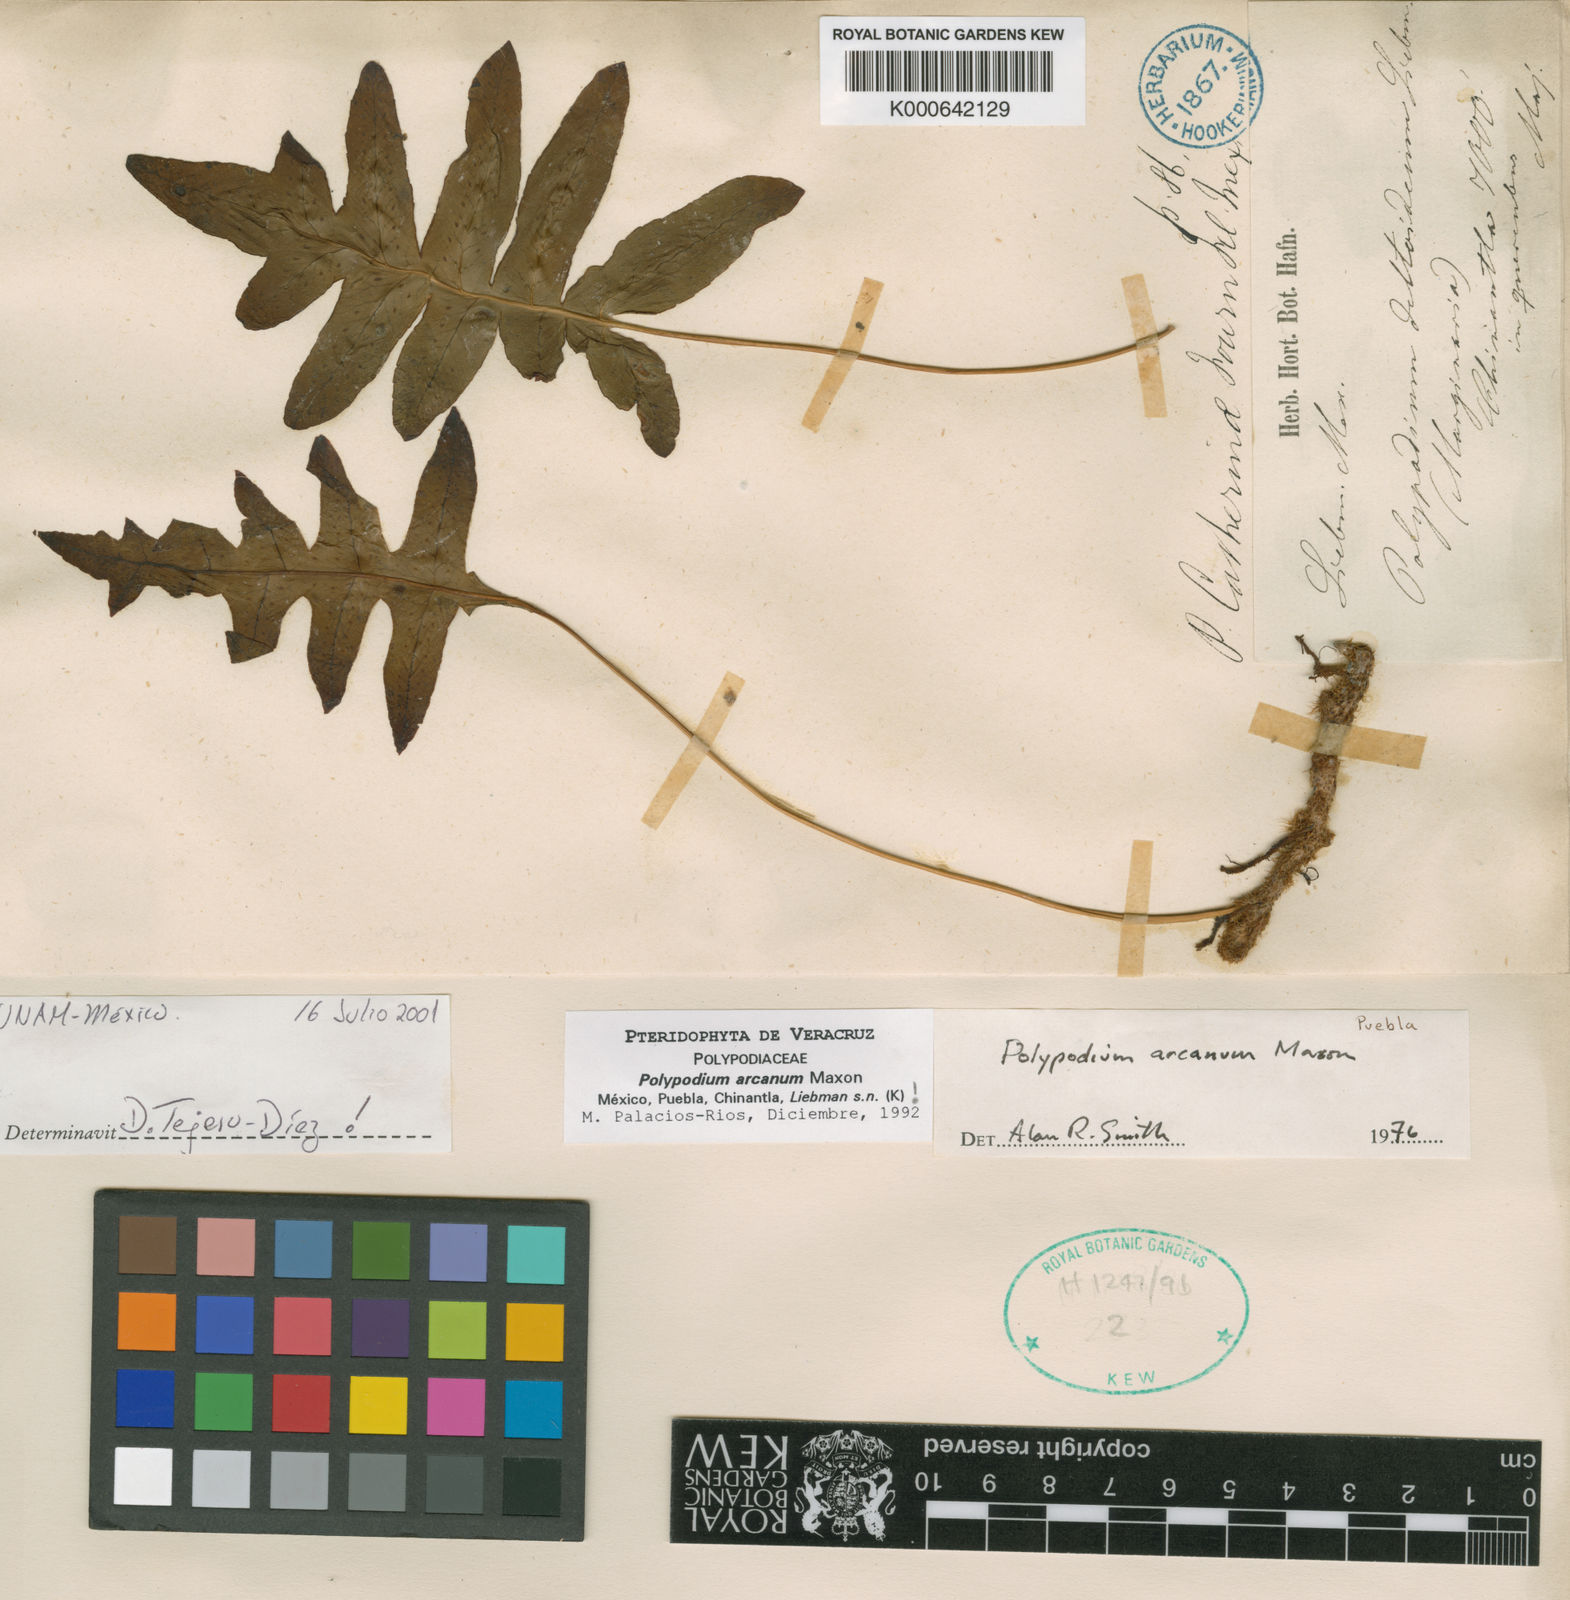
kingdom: Plantae
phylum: Tracheophyta
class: Polypodiopsida
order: Polypodiales
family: Polypodiaceae
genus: Polypodium
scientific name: Polypodium arcanum
